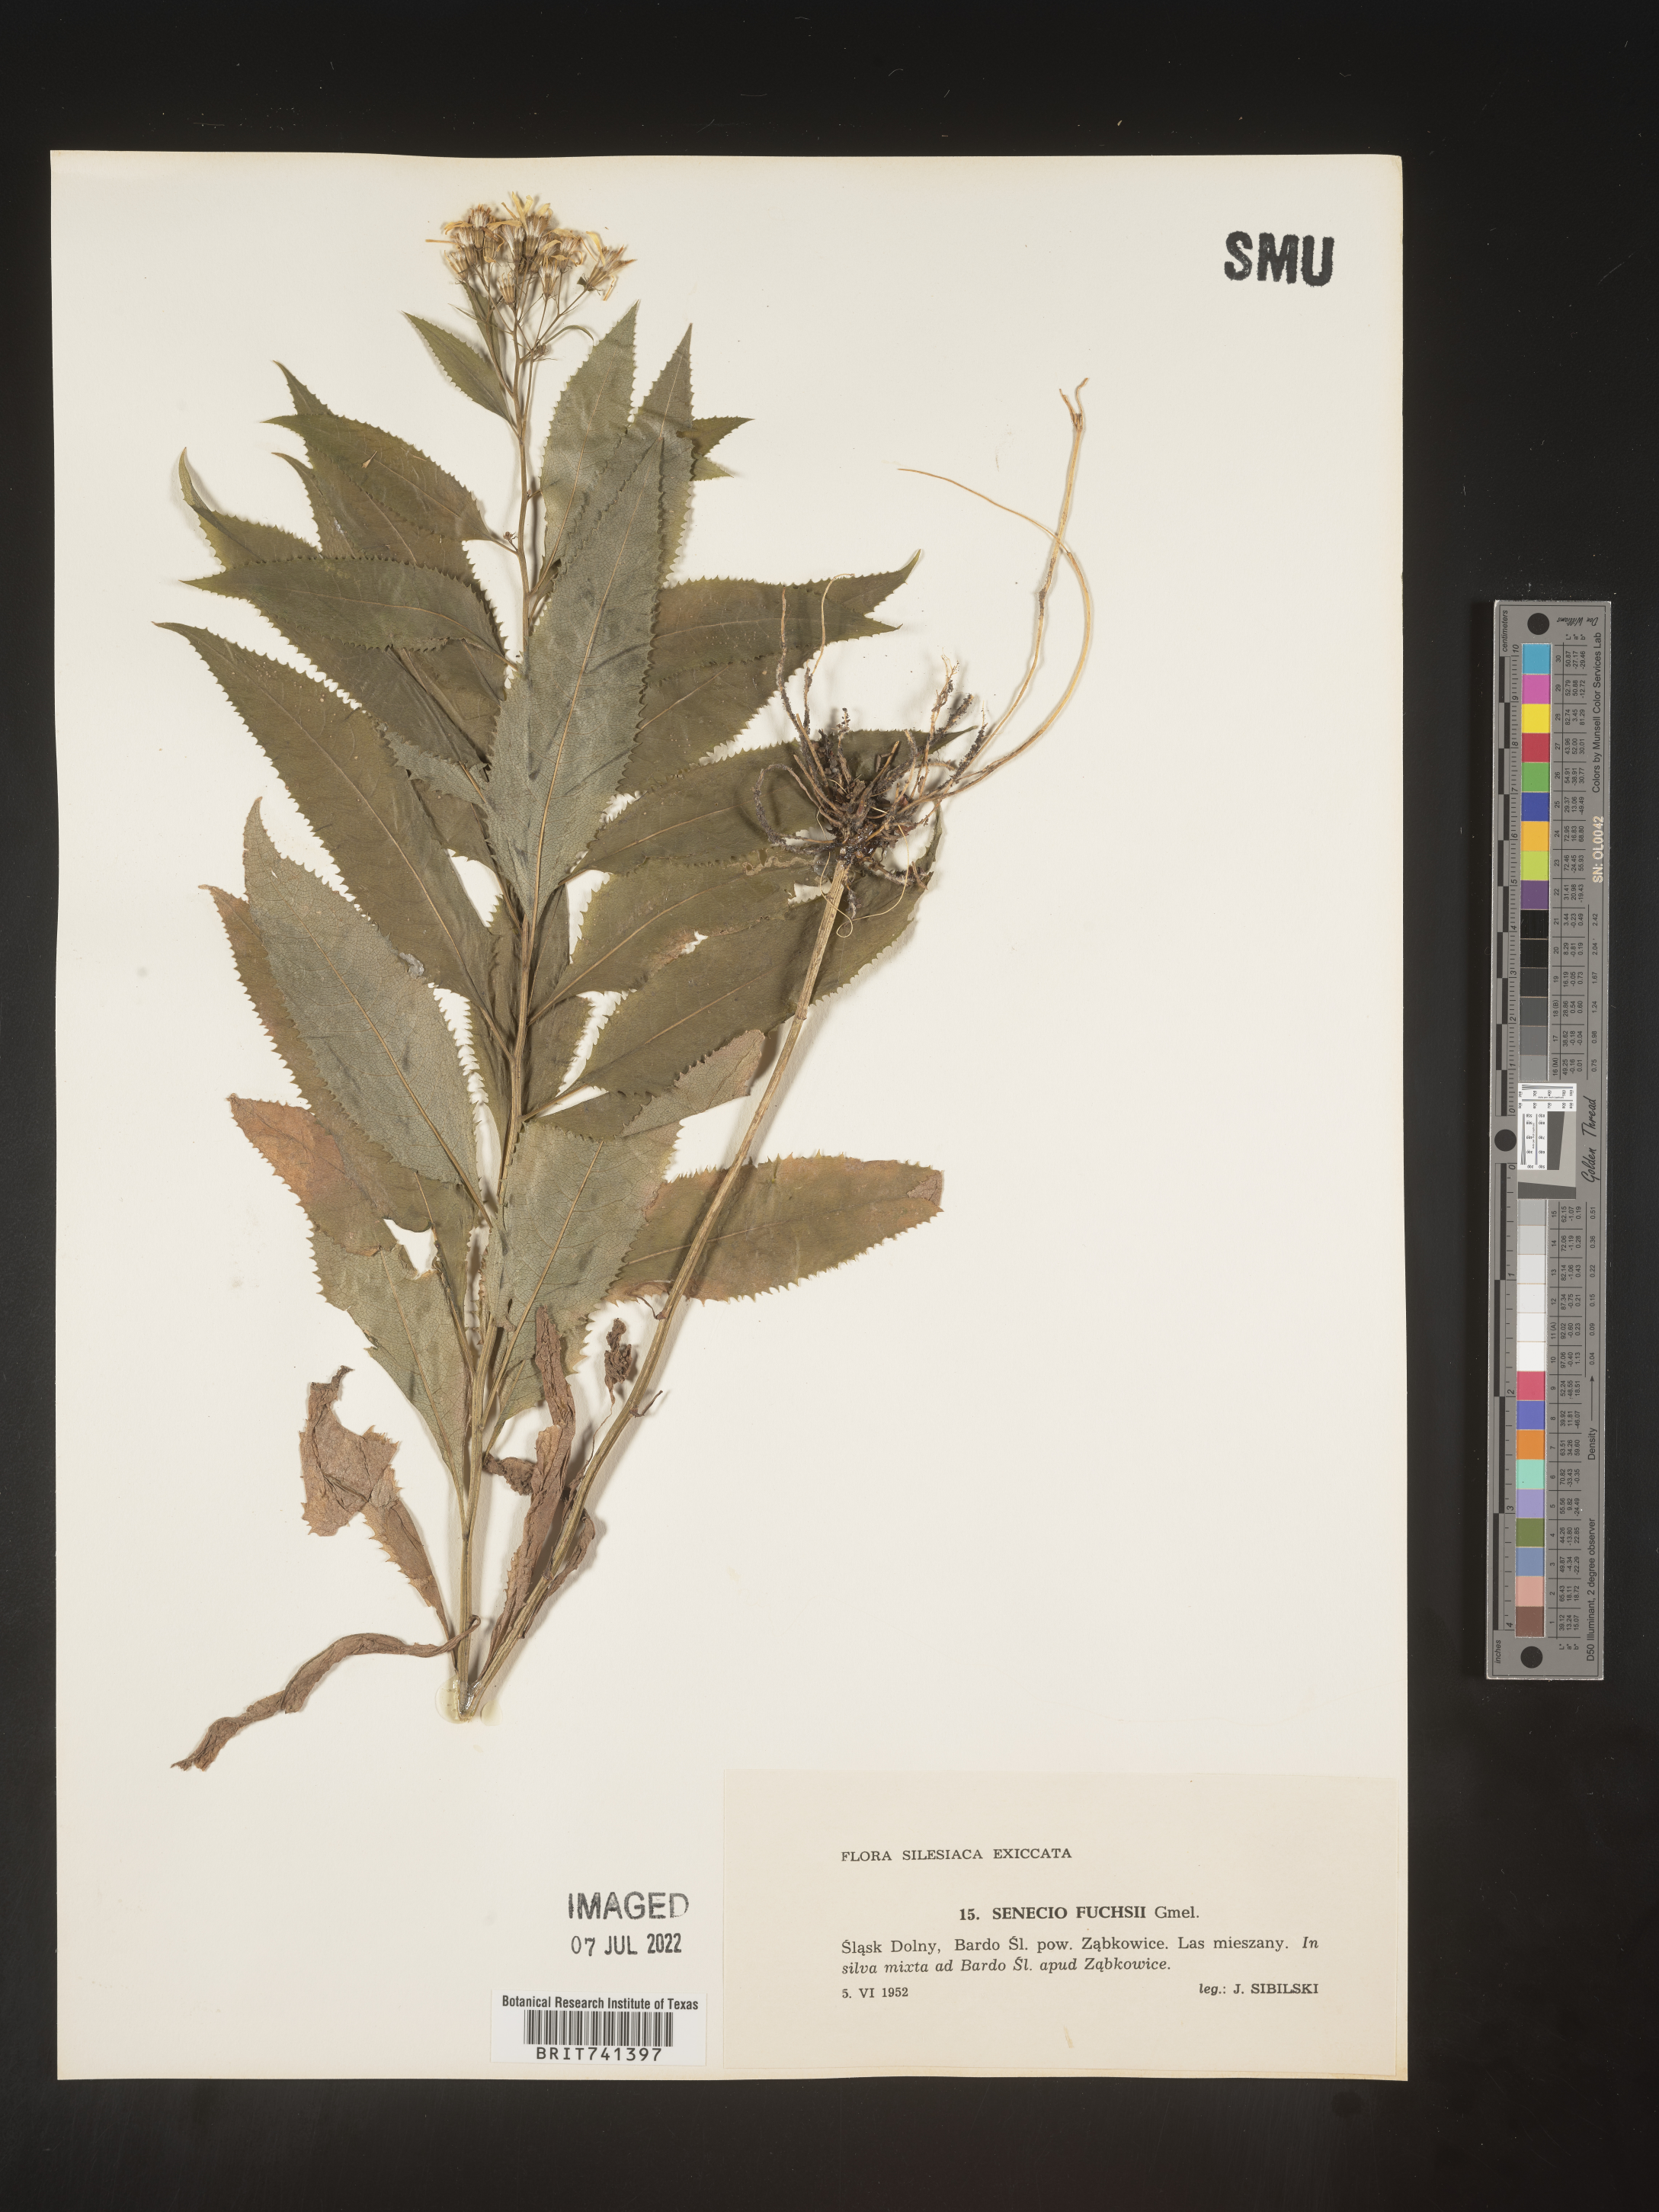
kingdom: Plantae
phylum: Tracheophyta
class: Magnoliopsida
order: Asterales
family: Asteraceae
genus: Senecio
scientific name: Senecio
